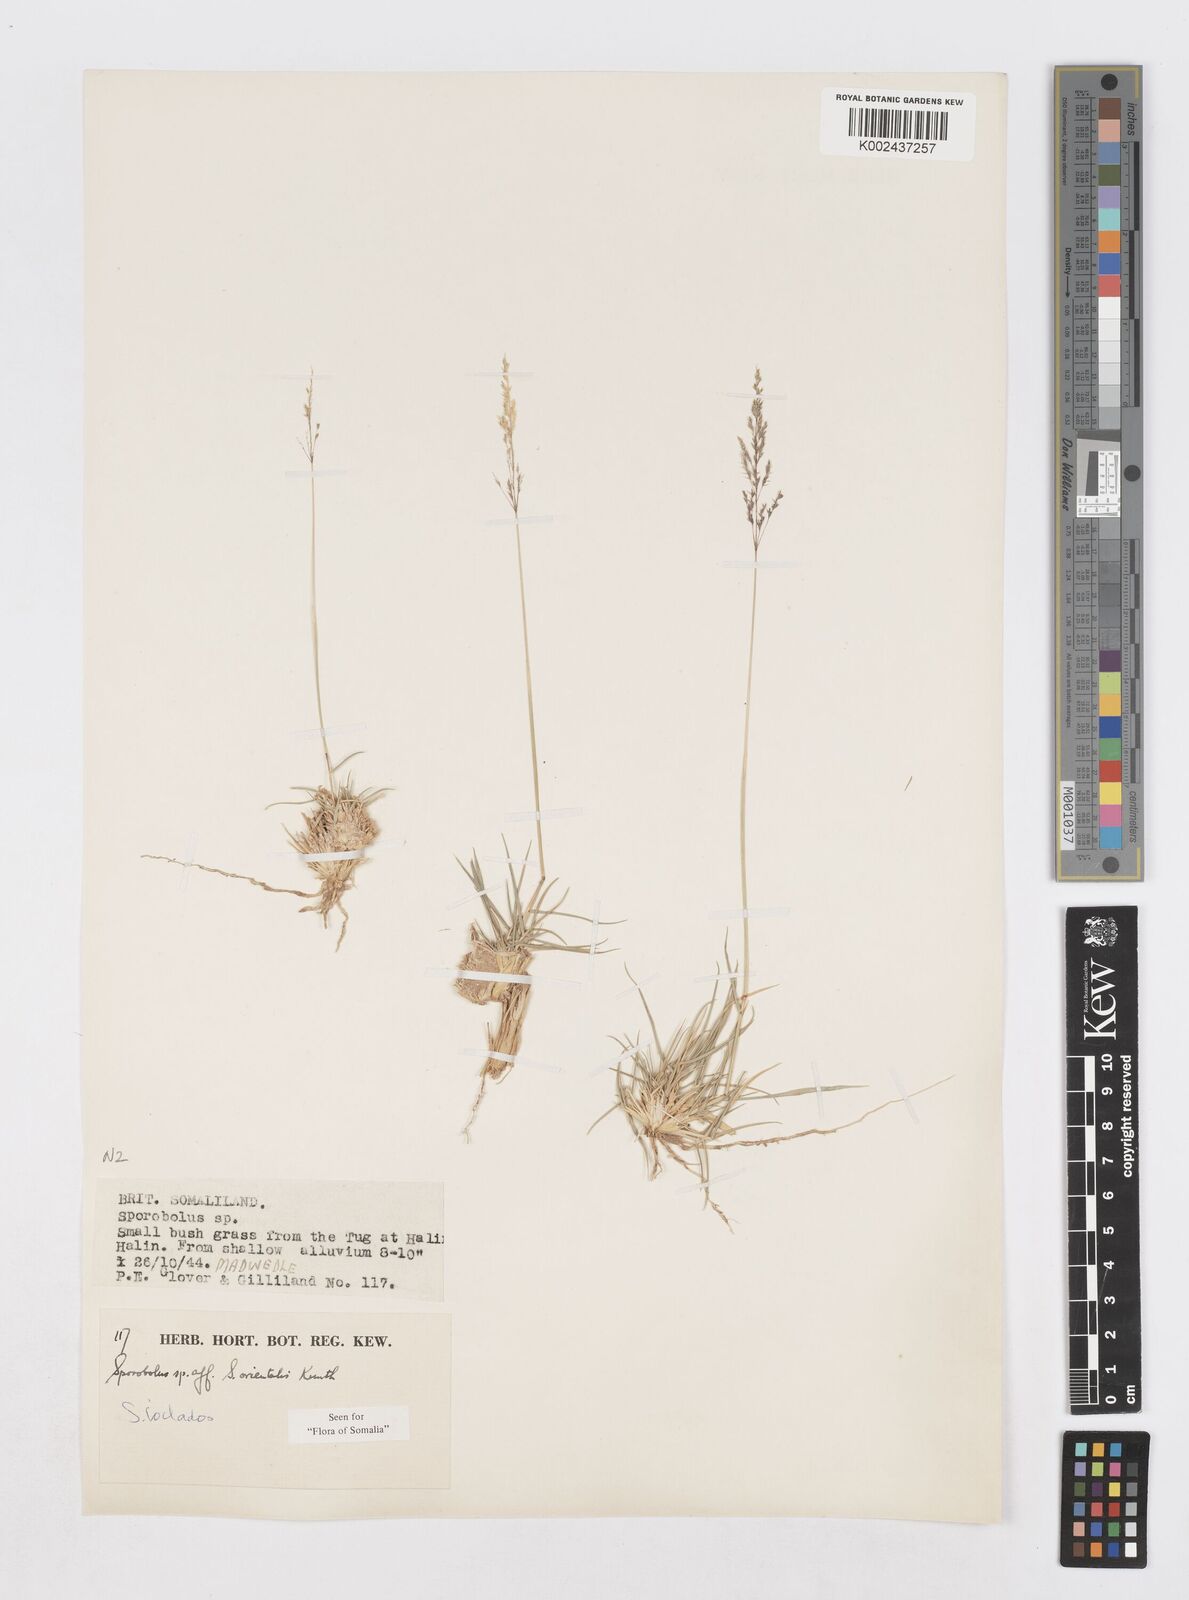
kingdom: Plantae
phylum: Tracheophyta
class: Liliopsida
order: Poales
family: Poaceae
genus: Sporobolus
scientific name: Sporobolus ioclados
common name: Pan dropseed
